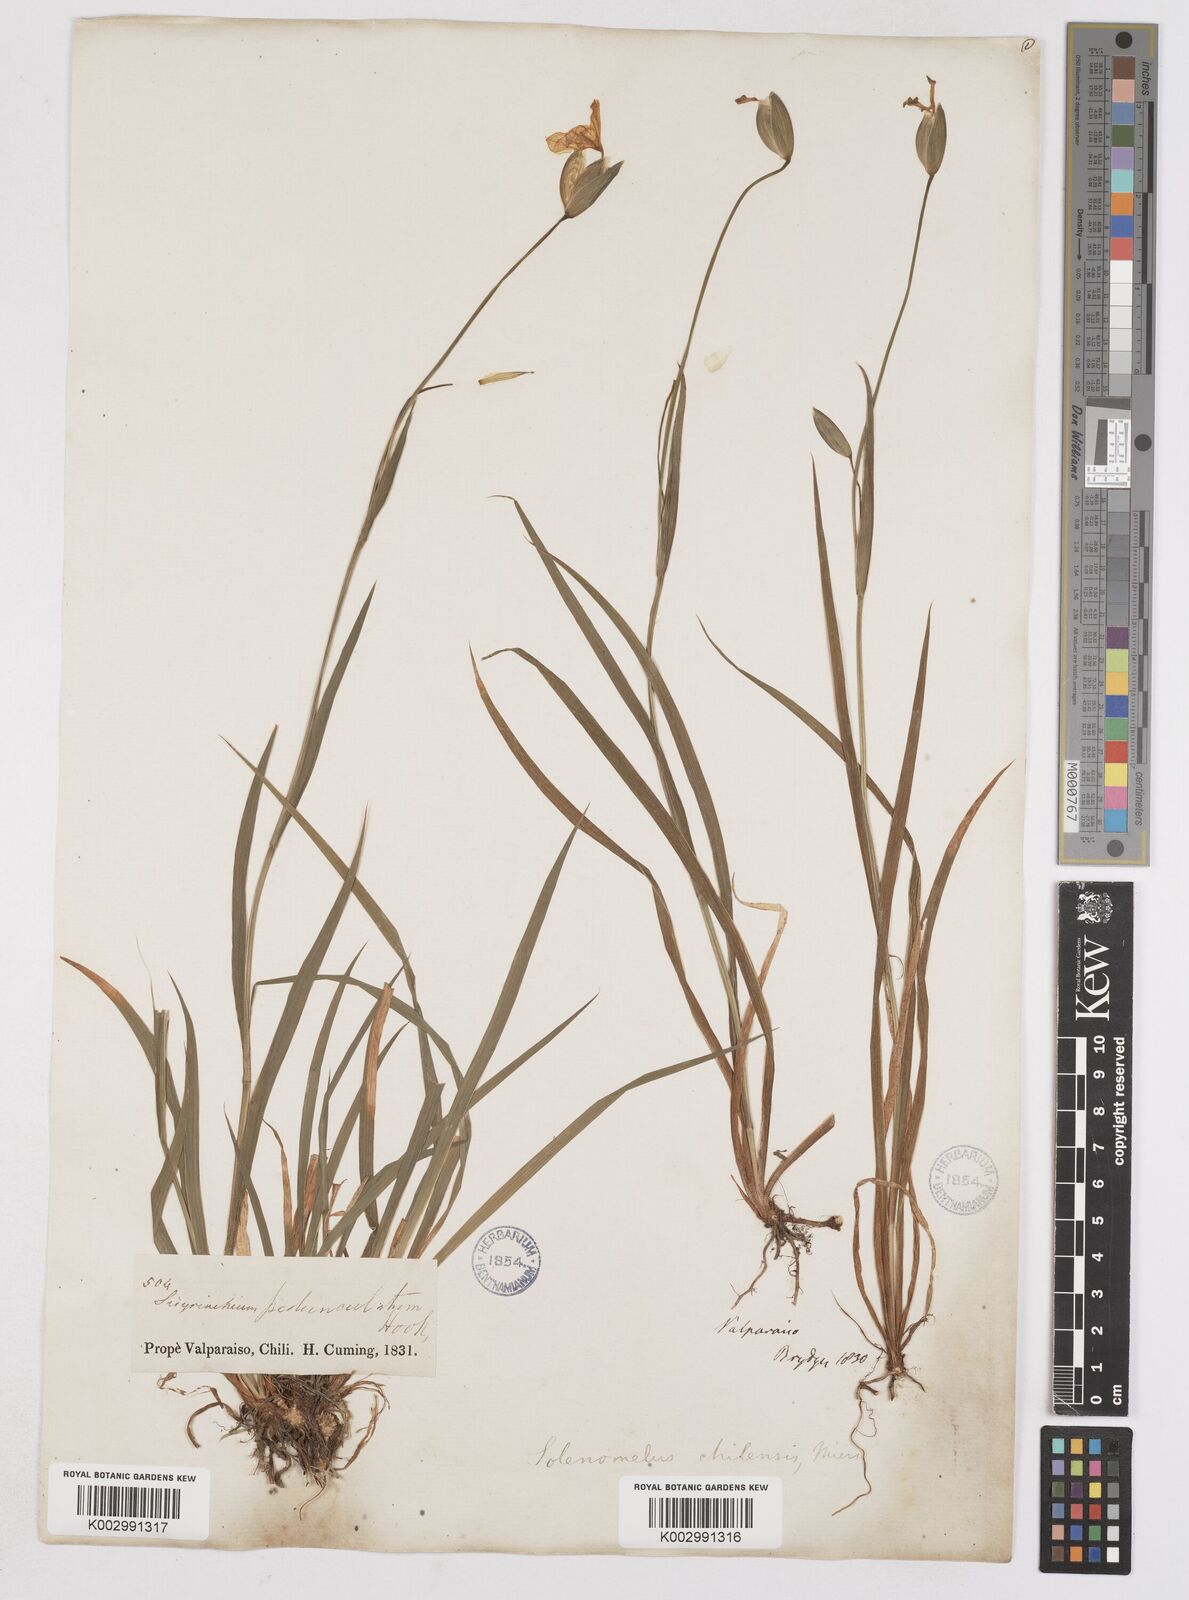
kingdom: Plantae
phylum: Tracheophyta
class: Liliopsida
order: Asparagales
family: Iridaceae
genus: Solenomelus
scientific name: Solenomelus pedunculatus
